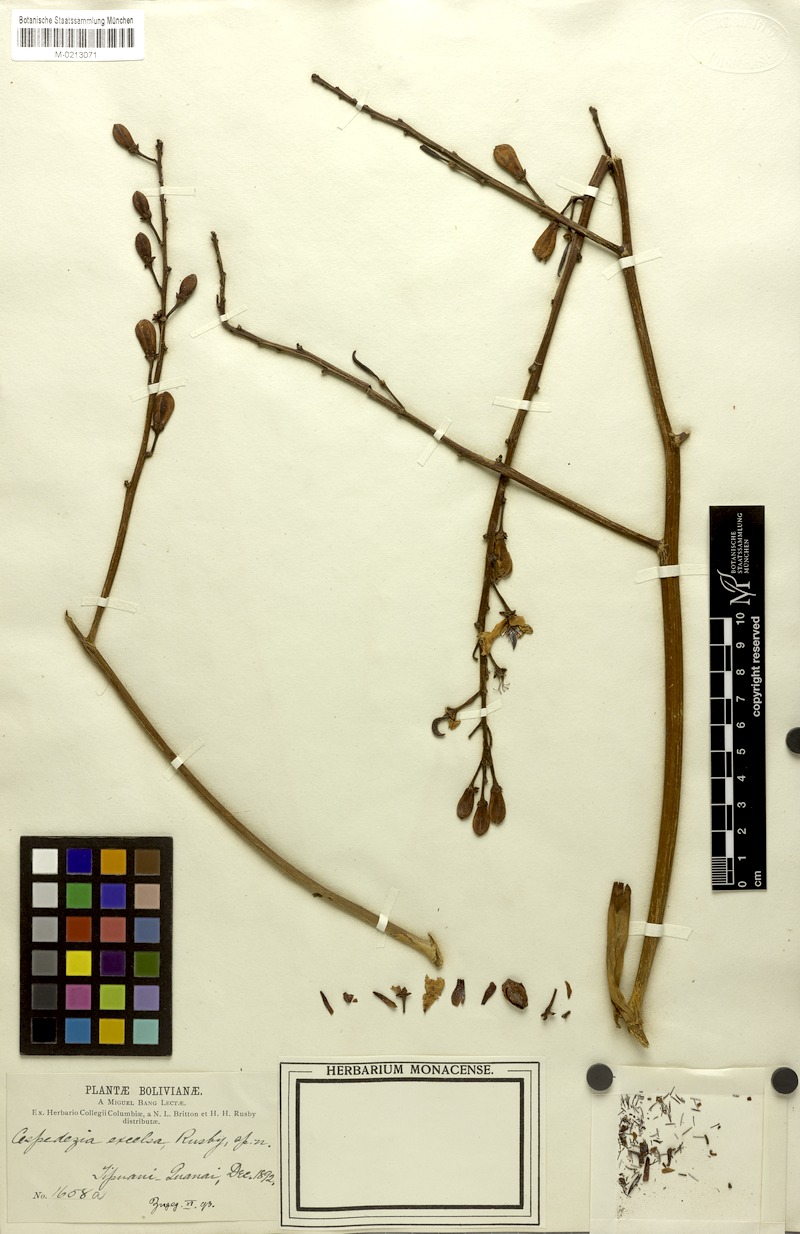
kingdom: Plantae
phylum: Tracheophyta
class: Magnoliopsida
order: Malpighiales
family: Ochnaceae
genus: Cespedesia
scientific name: Cespedesia spathulata
